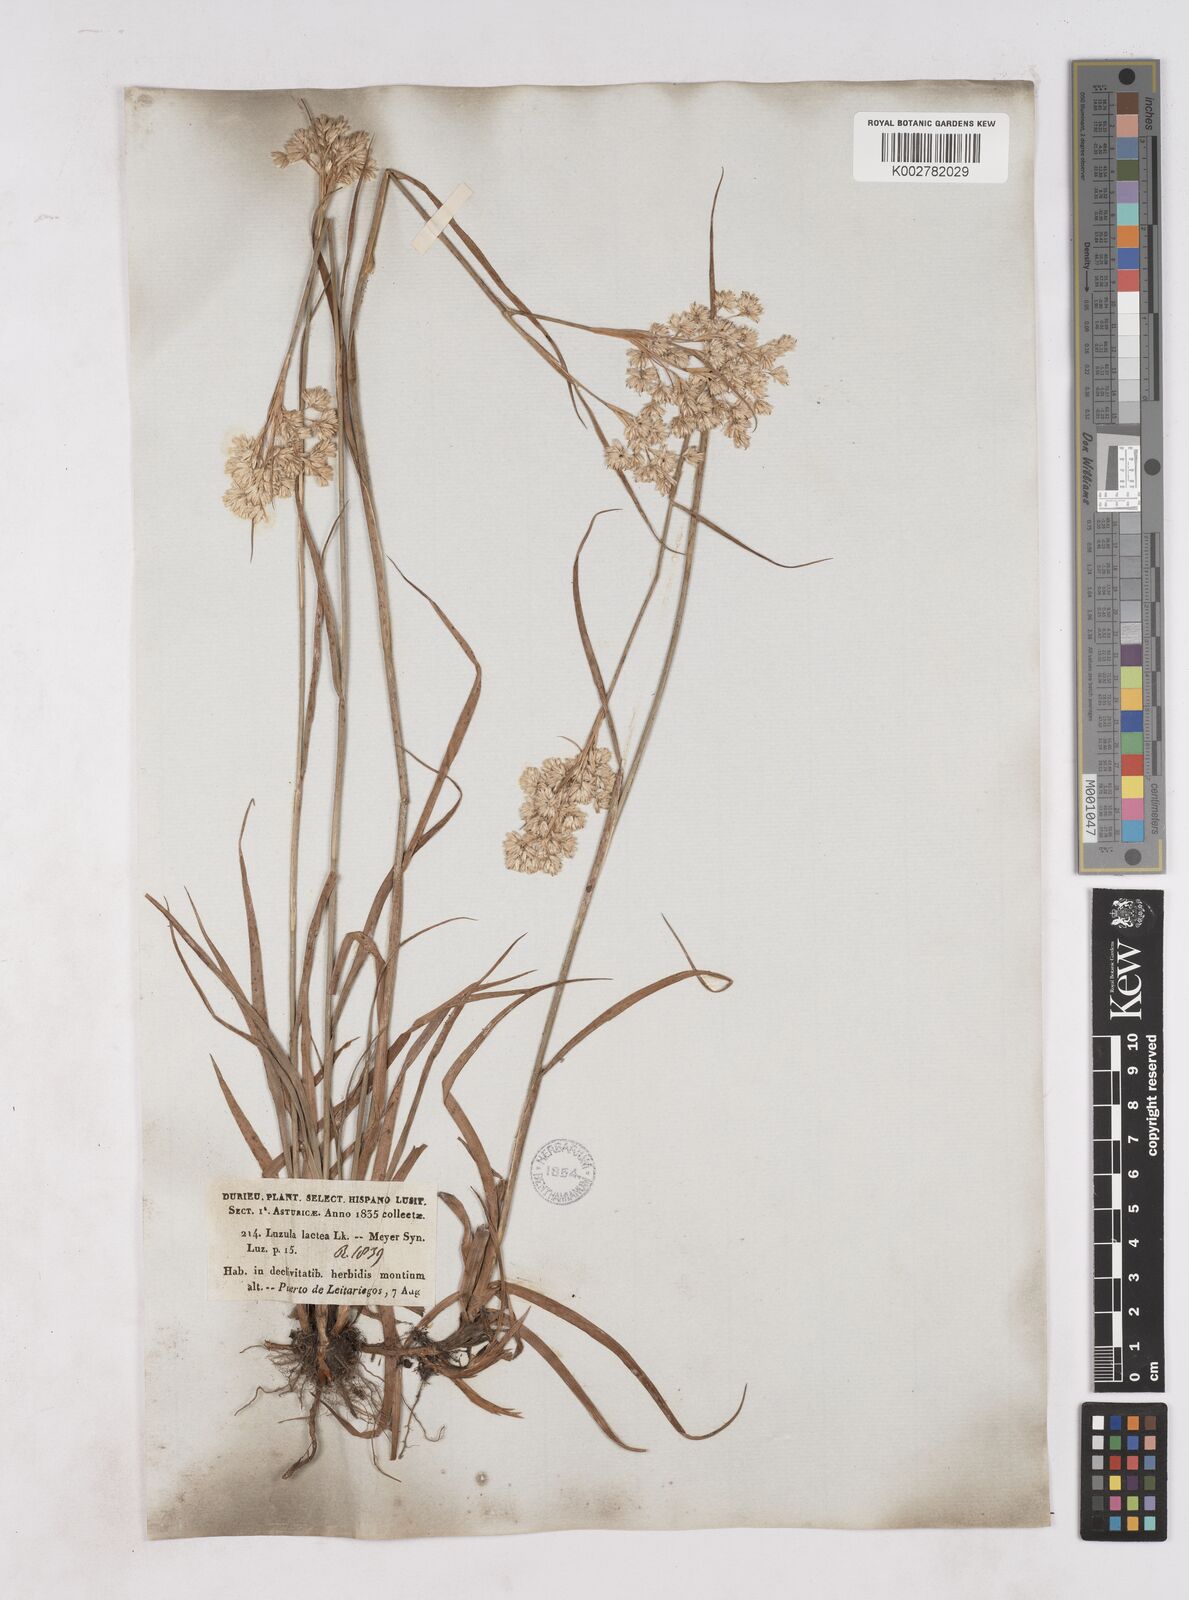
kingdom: Plantae
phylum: Tracheophyta
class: Liliopsida
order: Poales
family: Juncaceae
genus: Luzula
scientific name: Luzula lactea
